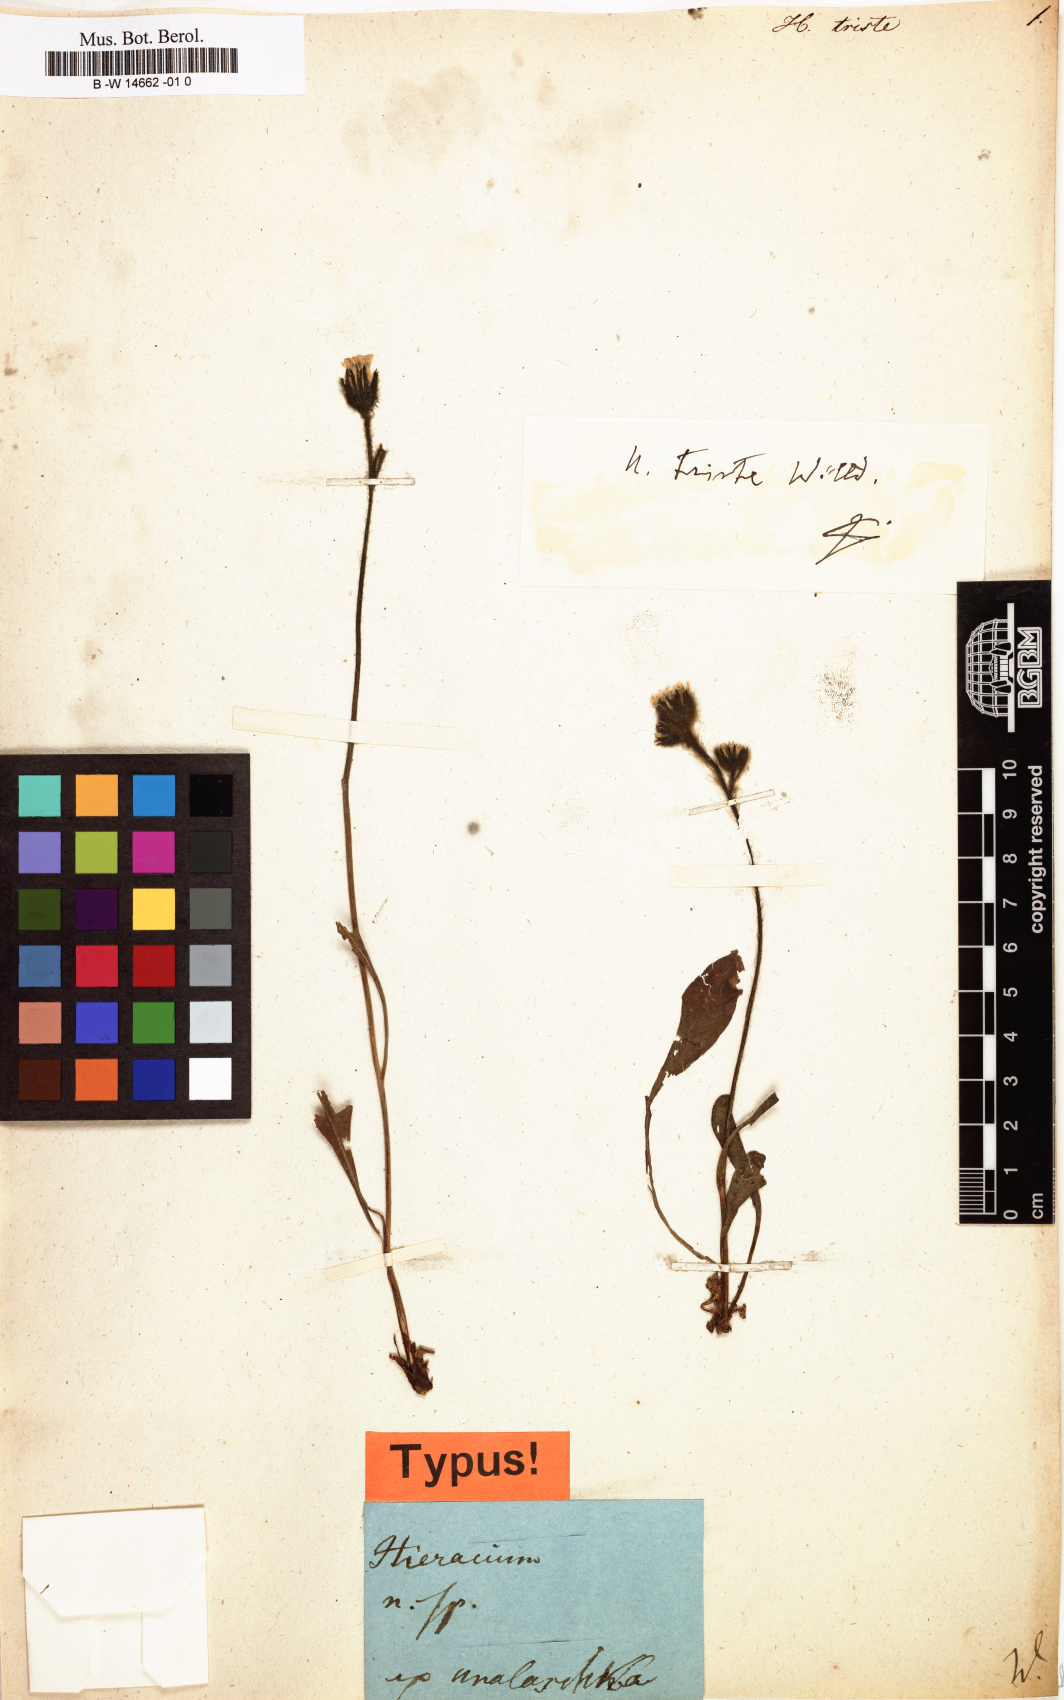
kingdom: Plantae
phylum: Tracheophyta
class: Magnoliopsida
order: Asterales
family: Asteraceae
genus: Hieracium
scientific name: Hieracium triste
